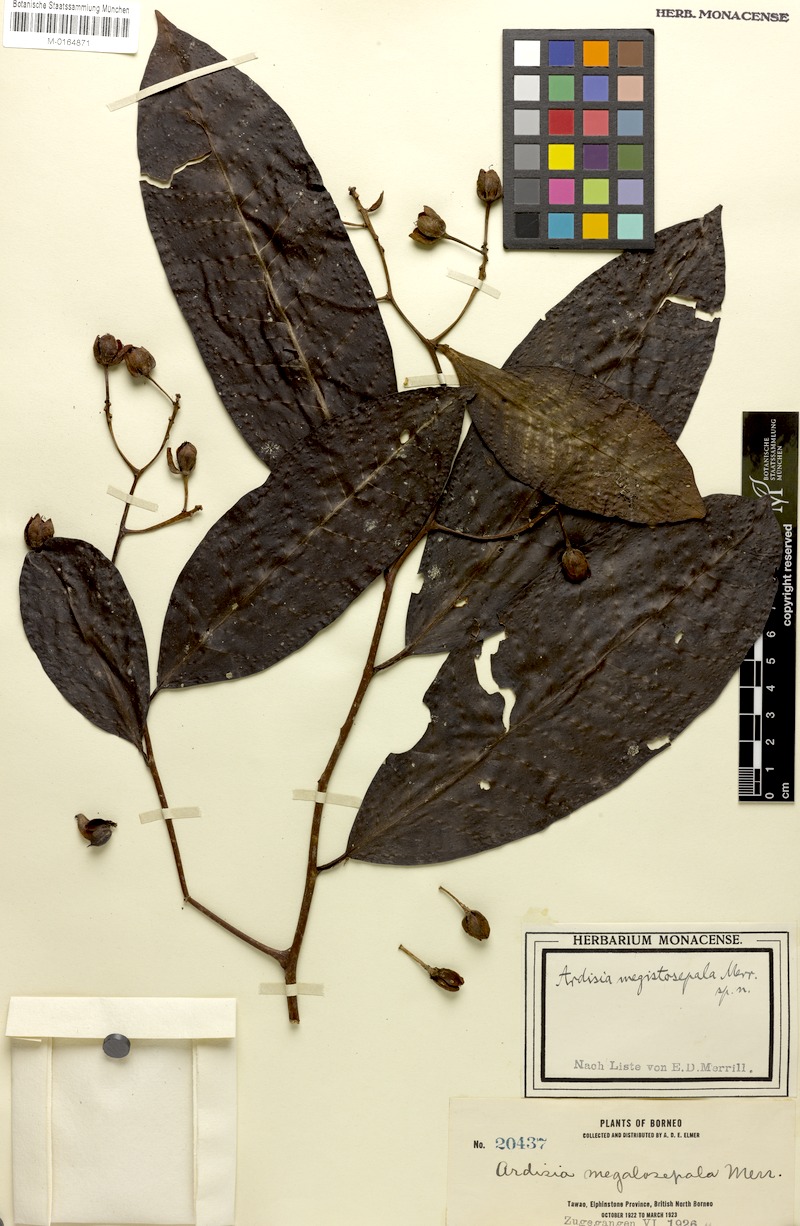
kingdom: Plantae
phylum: Tracheophyta
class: Magnoliopsida
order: Ericales
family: Primulaceae
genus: Ardisia
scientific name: Ardisia megistosepala
